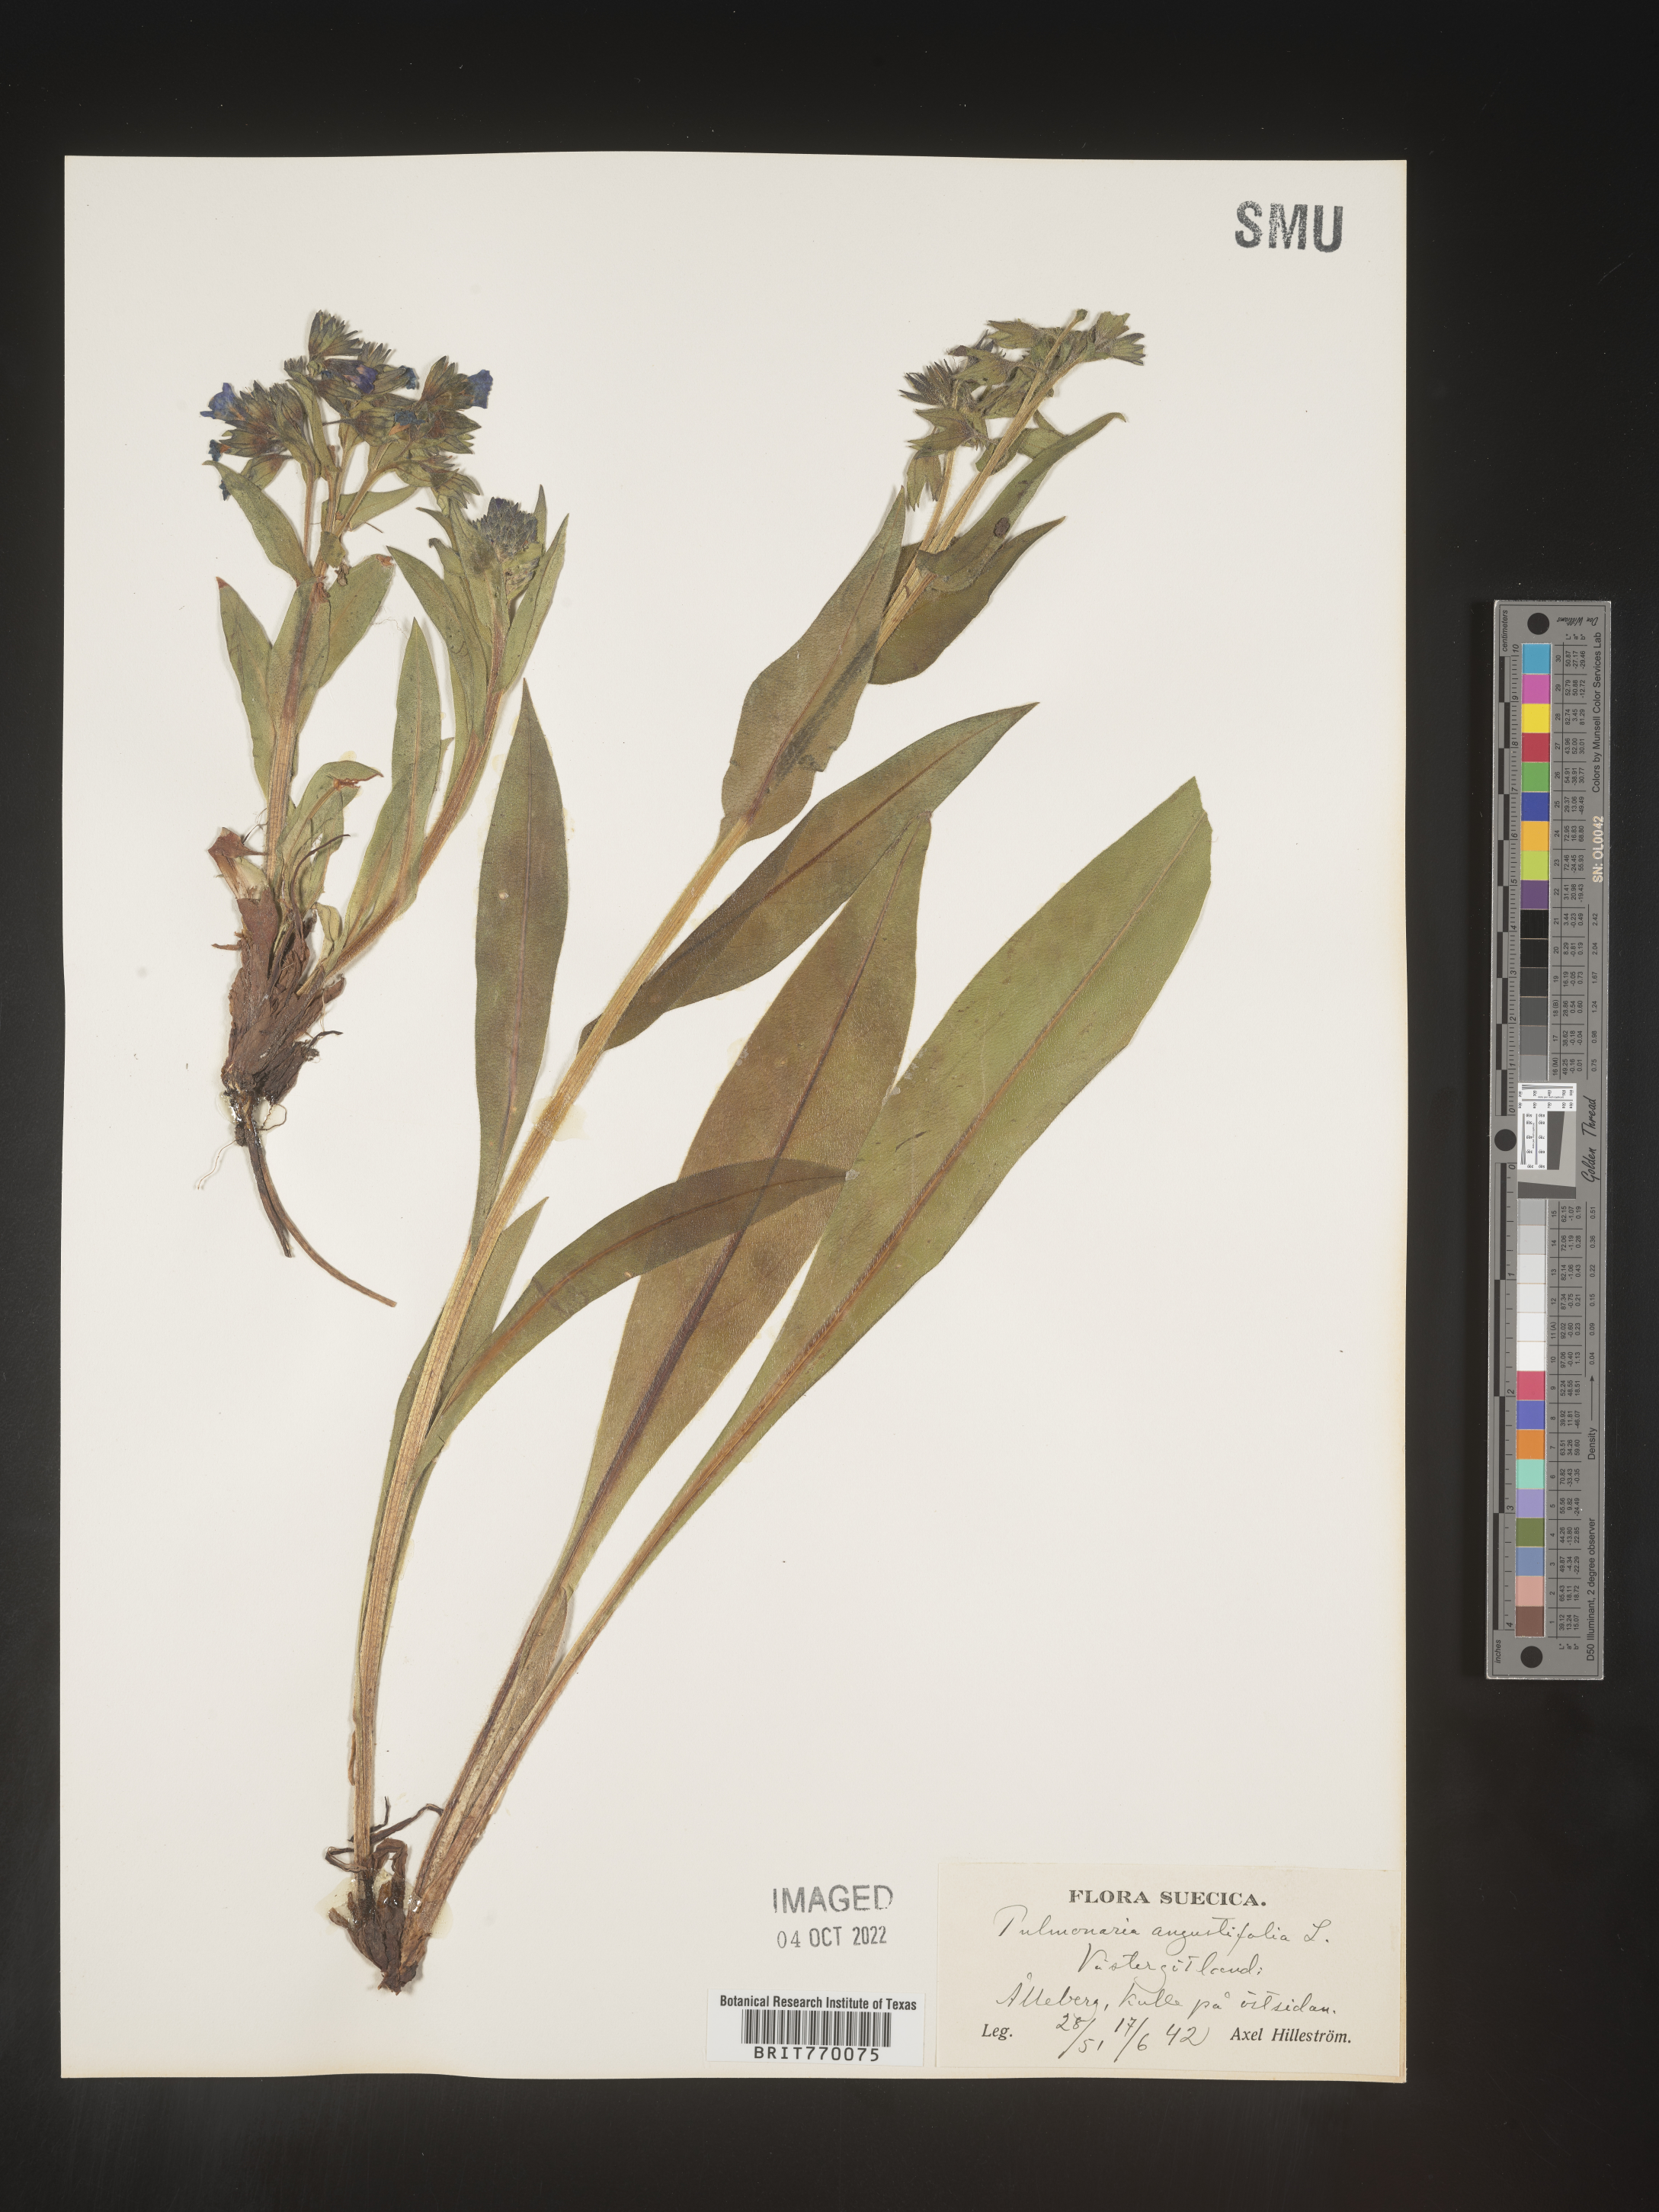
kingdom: Plantae
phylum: Tracheophyta
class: Magnoliopsida
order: Boraginales
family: Boraginaceae
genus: Pulmonaria
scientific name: Pulmonaria
